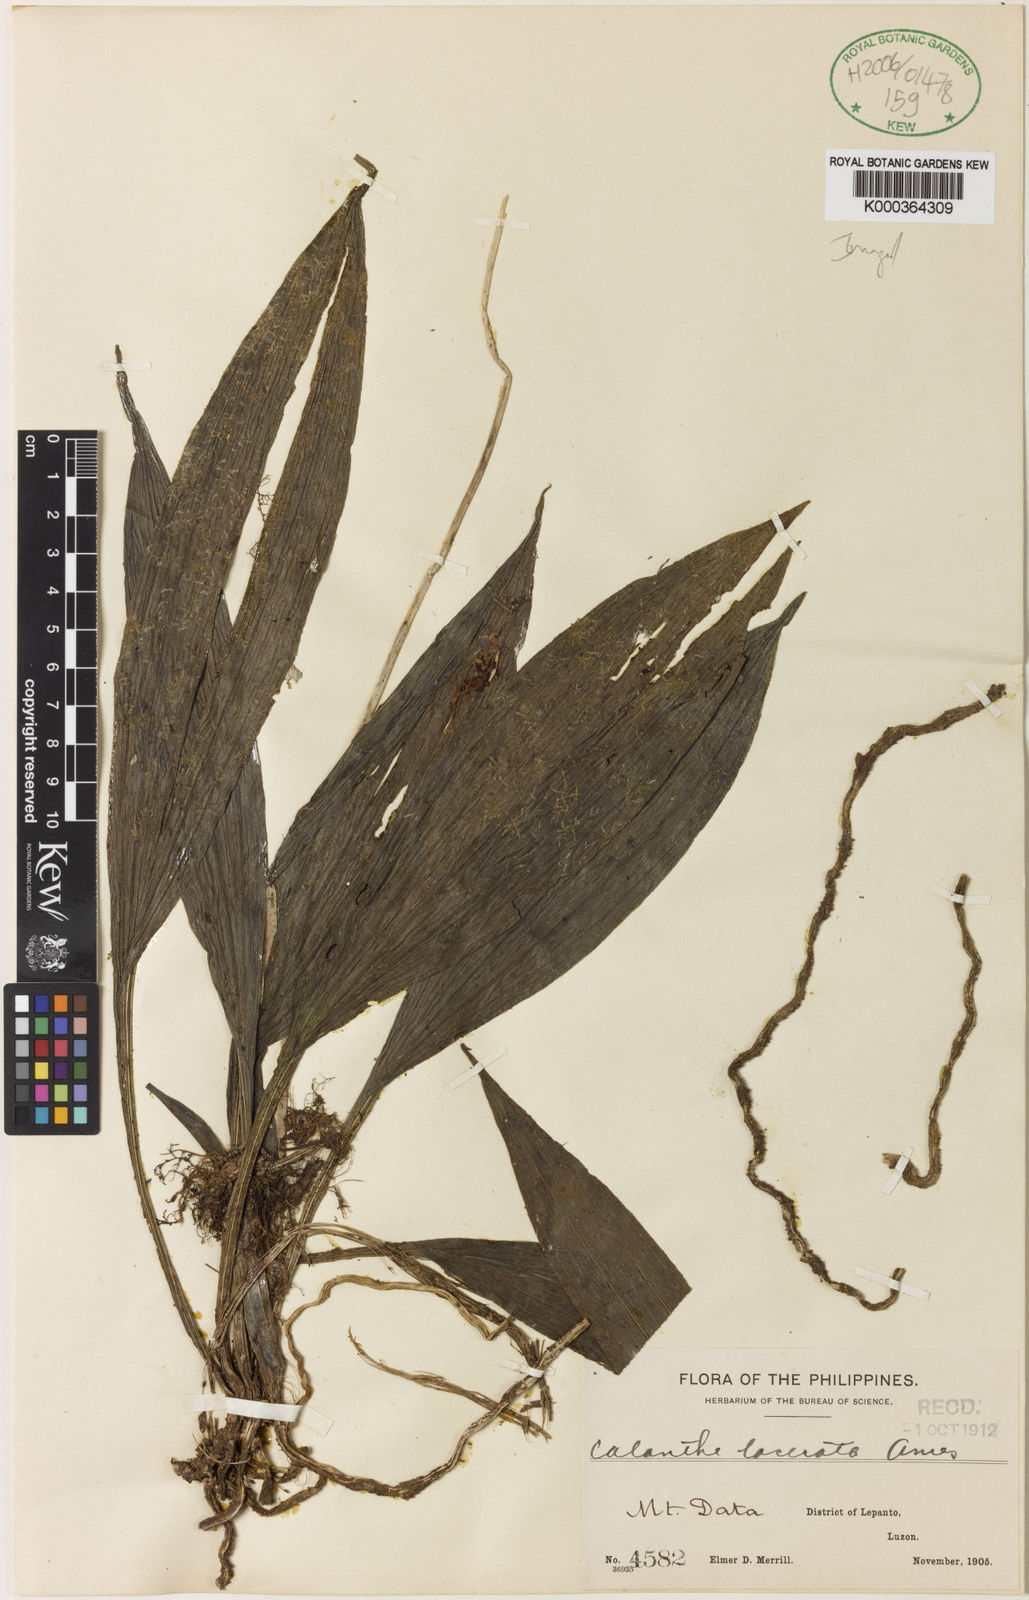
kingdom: Plantae
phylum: Tracheophyta
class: Liliopsida
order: Asparagales
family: Orchidaceae
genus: Calanthe
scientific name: Calanthe lacerata
